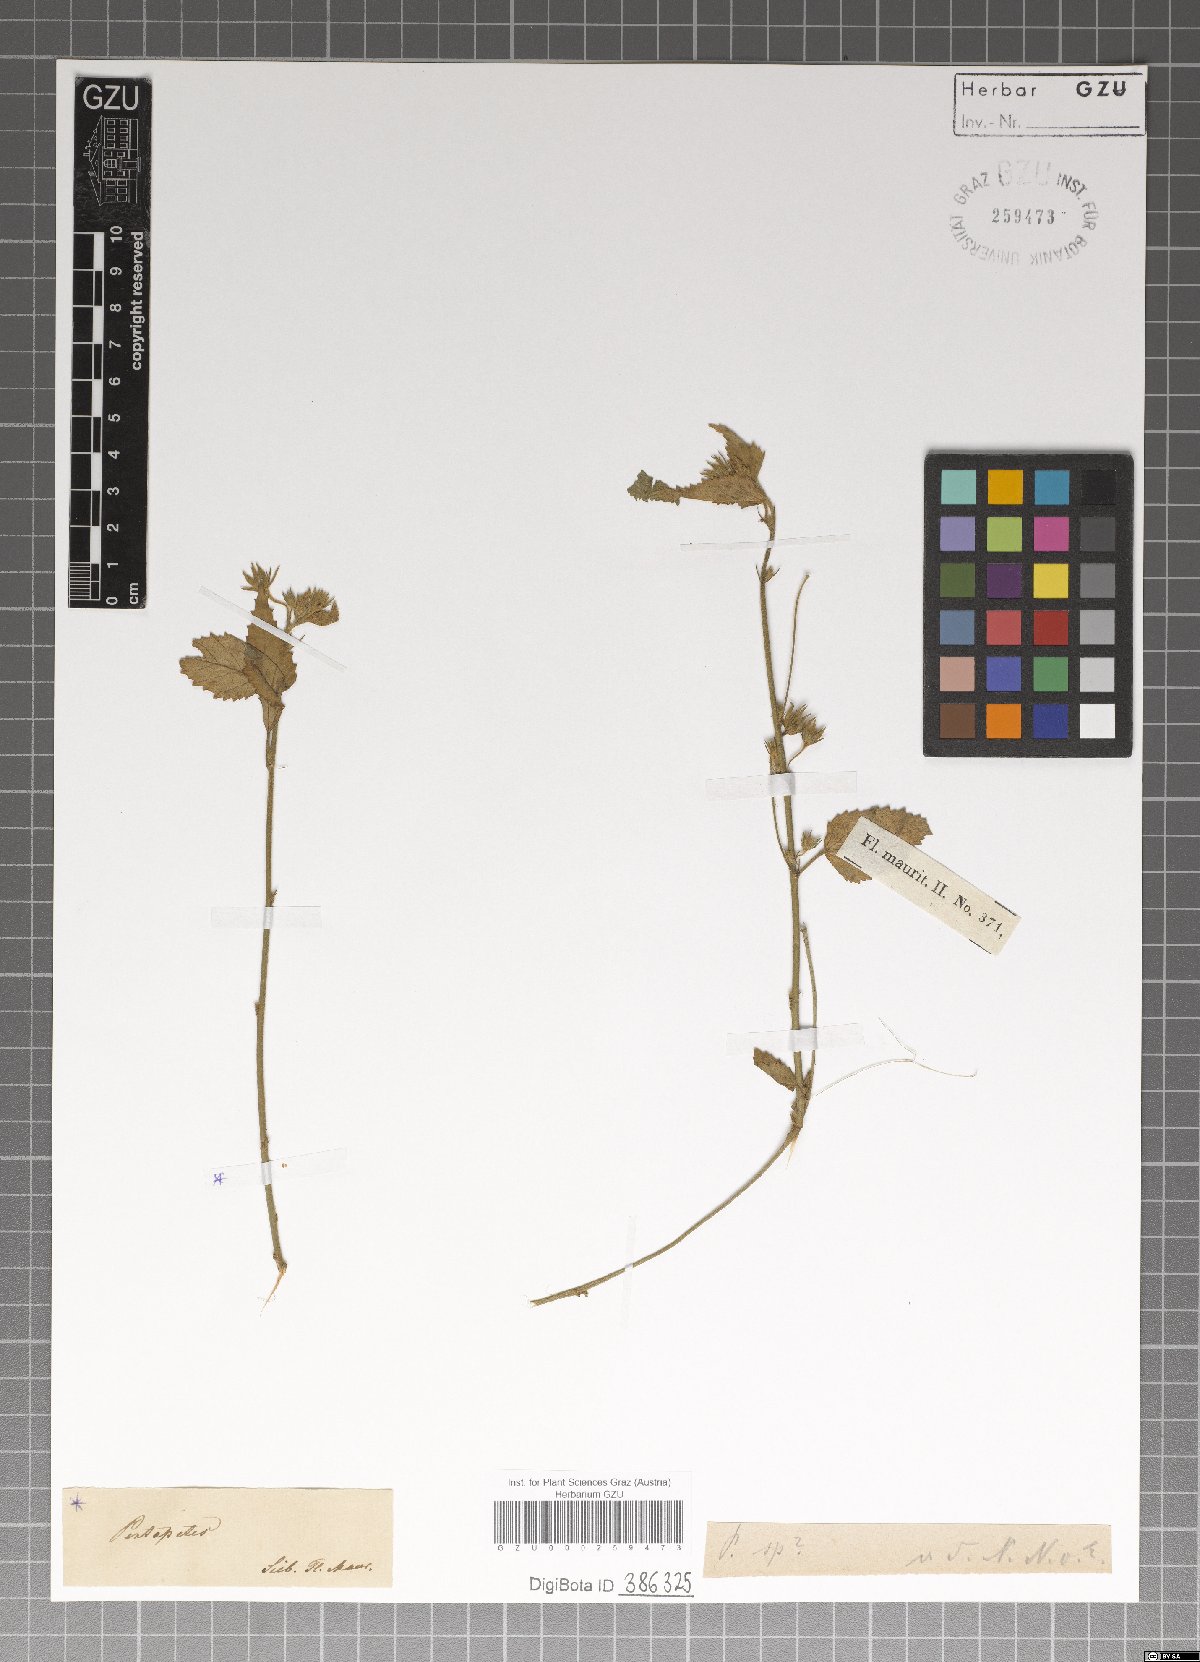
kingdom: Plantae
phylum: Tracheophyta
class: Magnoliopsida
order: Malvales
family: Malvaceae
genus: Pentapetes
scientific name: Pentapetes
